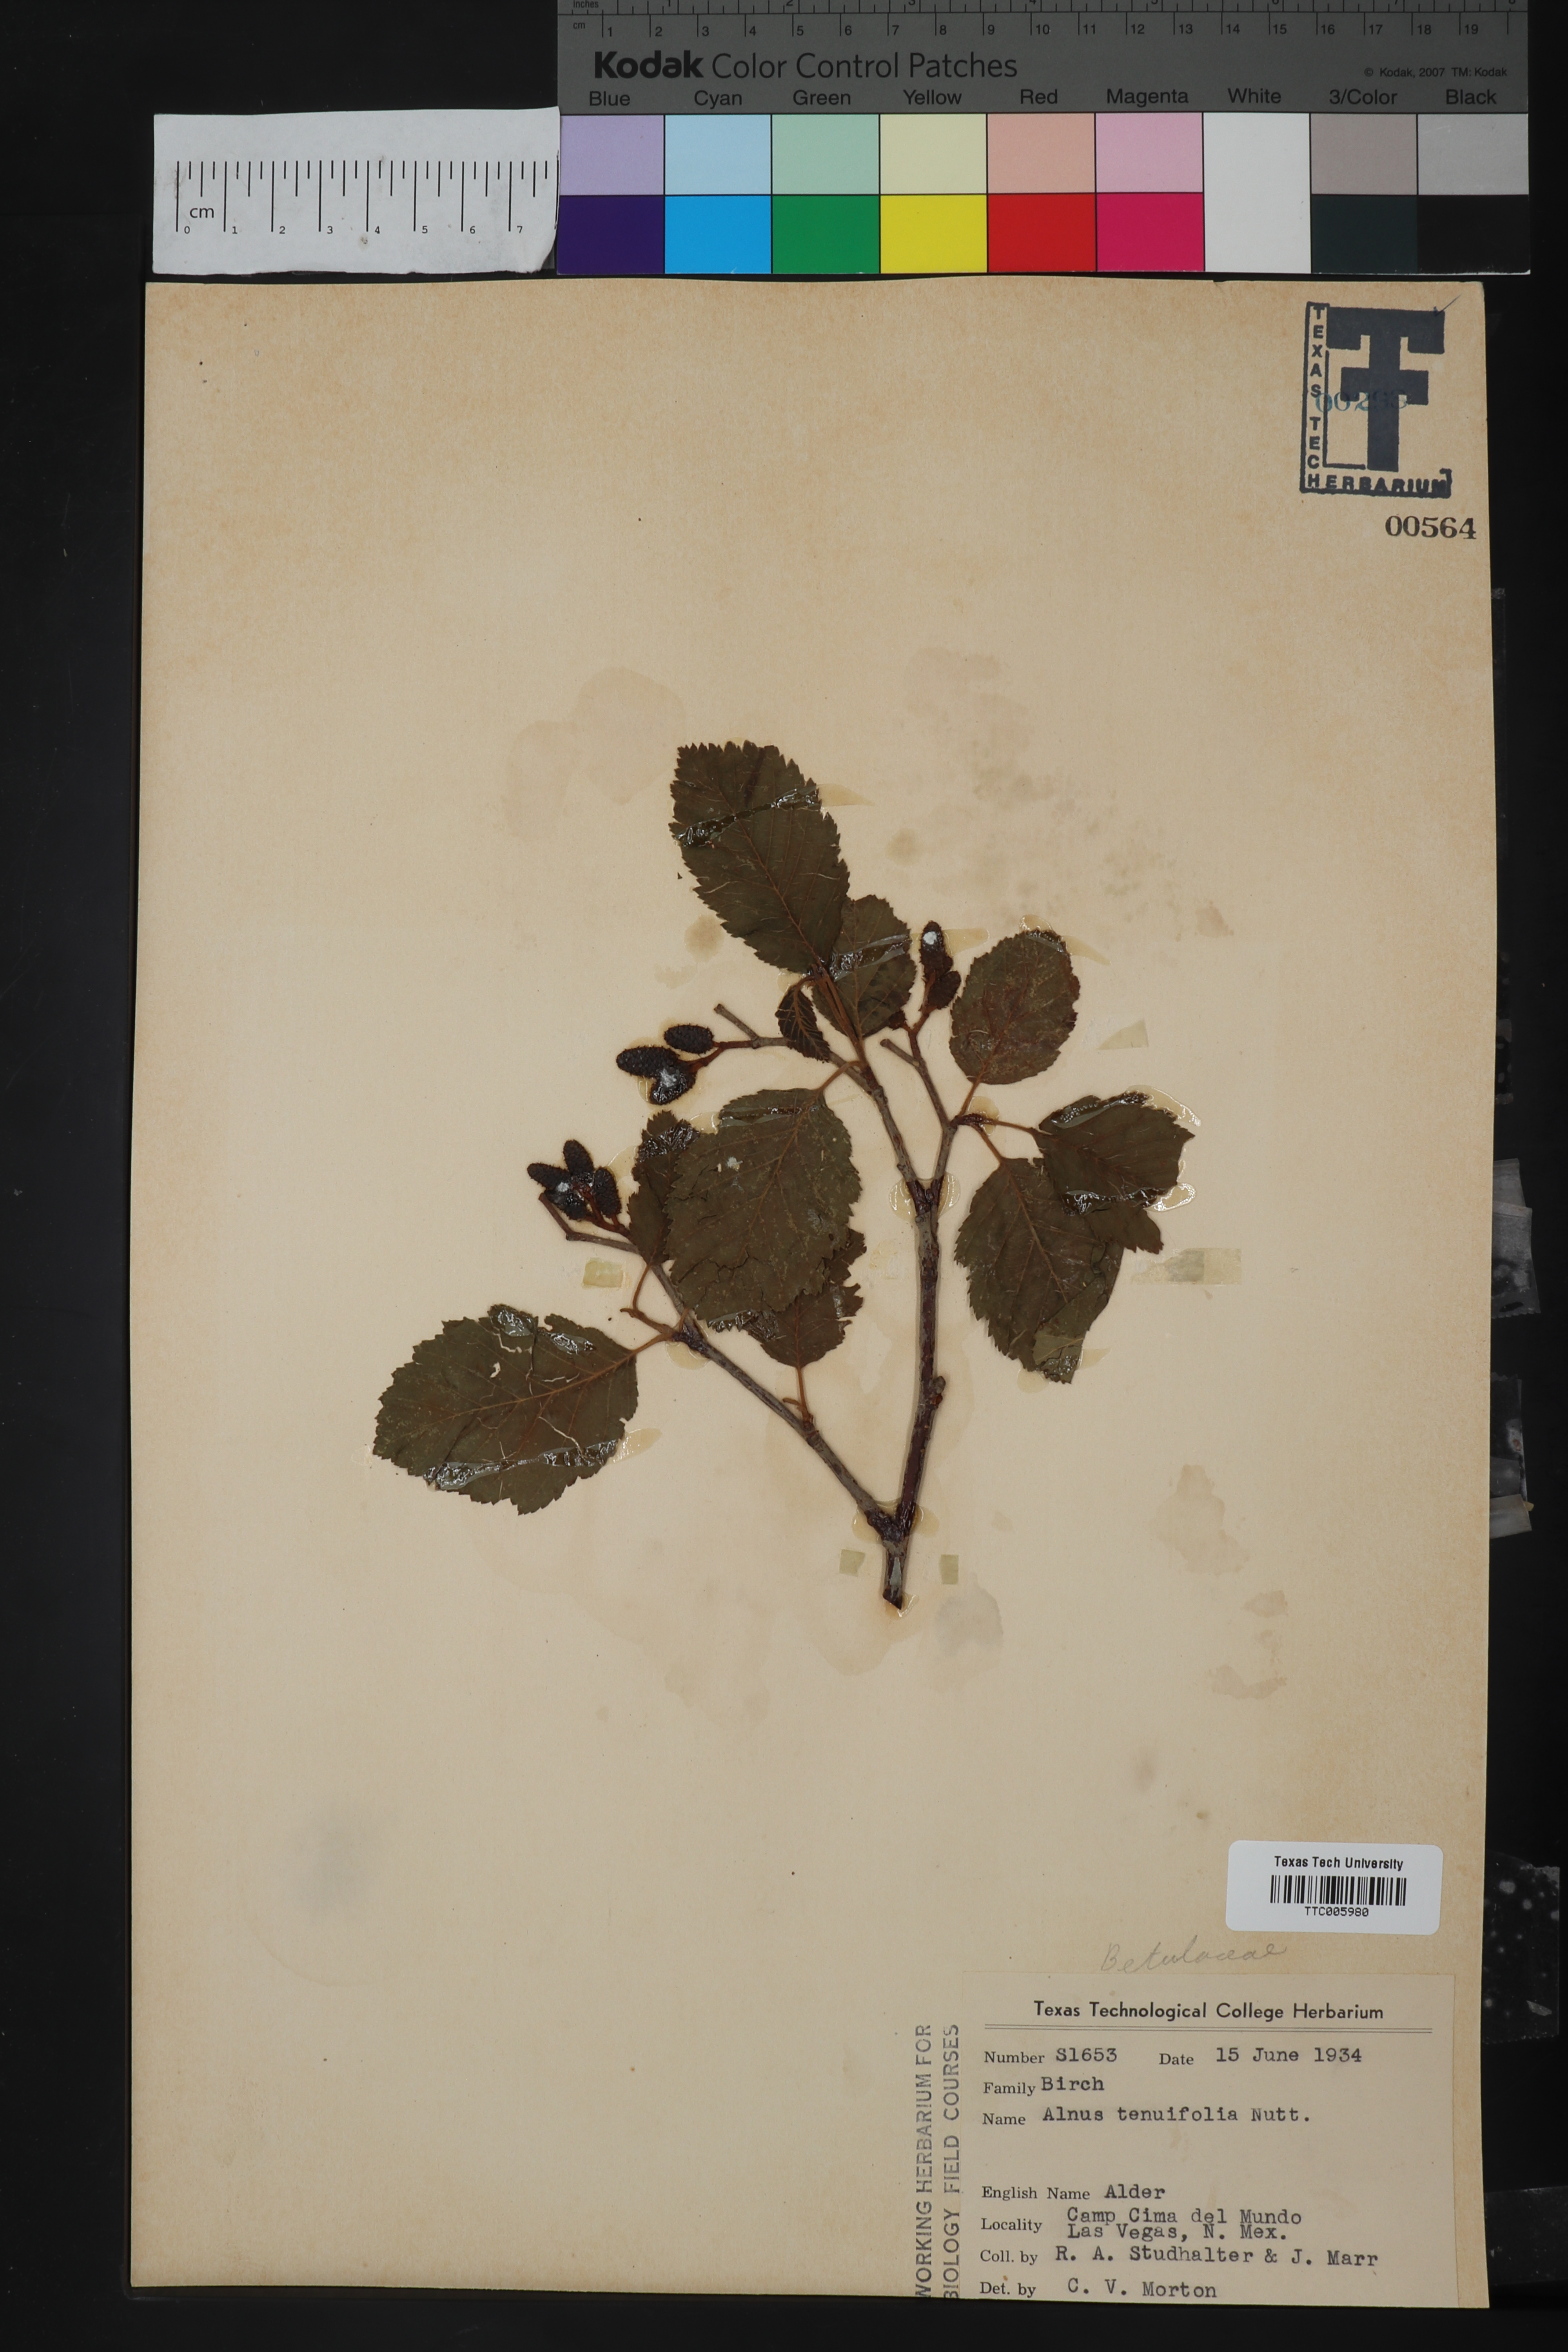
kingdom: Plantae
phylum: Tracheophyta
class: Magnoliopsida
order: Fagales
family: Betulaceae
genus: Alnus
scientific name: Alnus incana
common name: Grey alder
